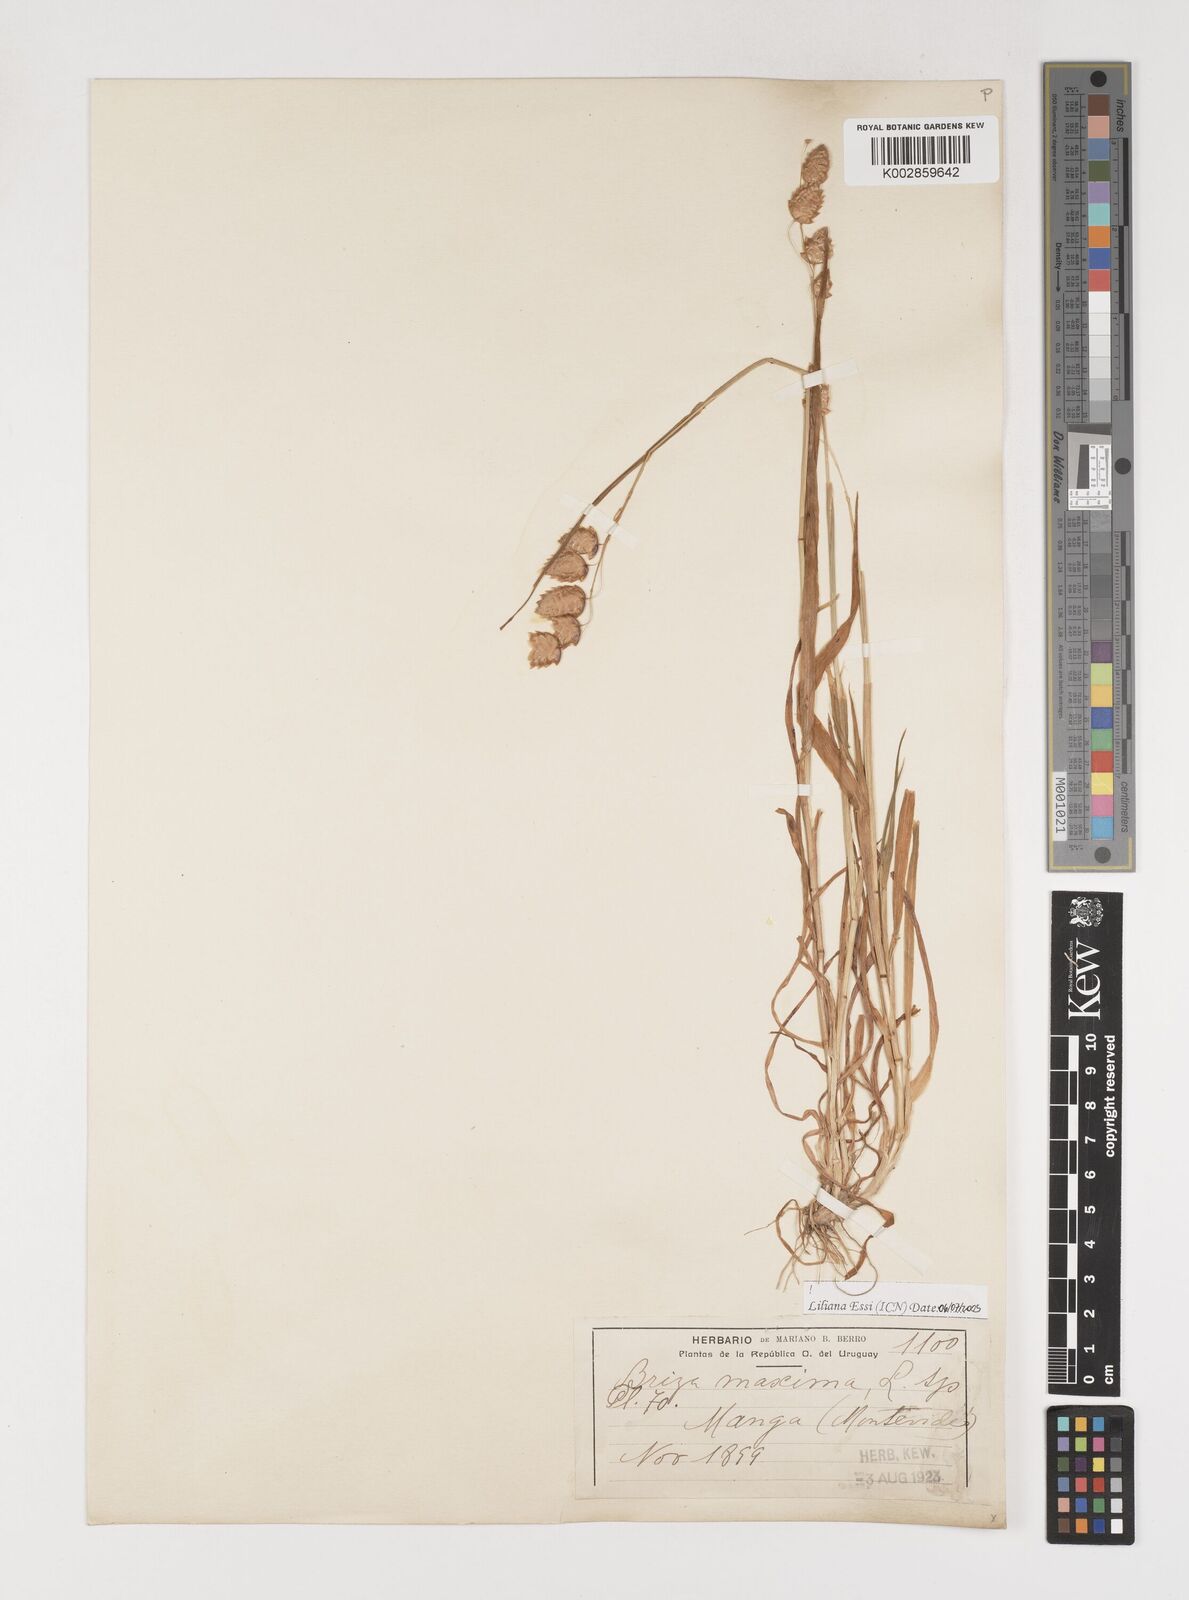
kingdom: Plantae
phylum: Tracheophyta
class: Liliopsida
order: Poales
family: Poaceae
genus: Briza
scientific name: Briza maxima
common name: Big quakinggrass
